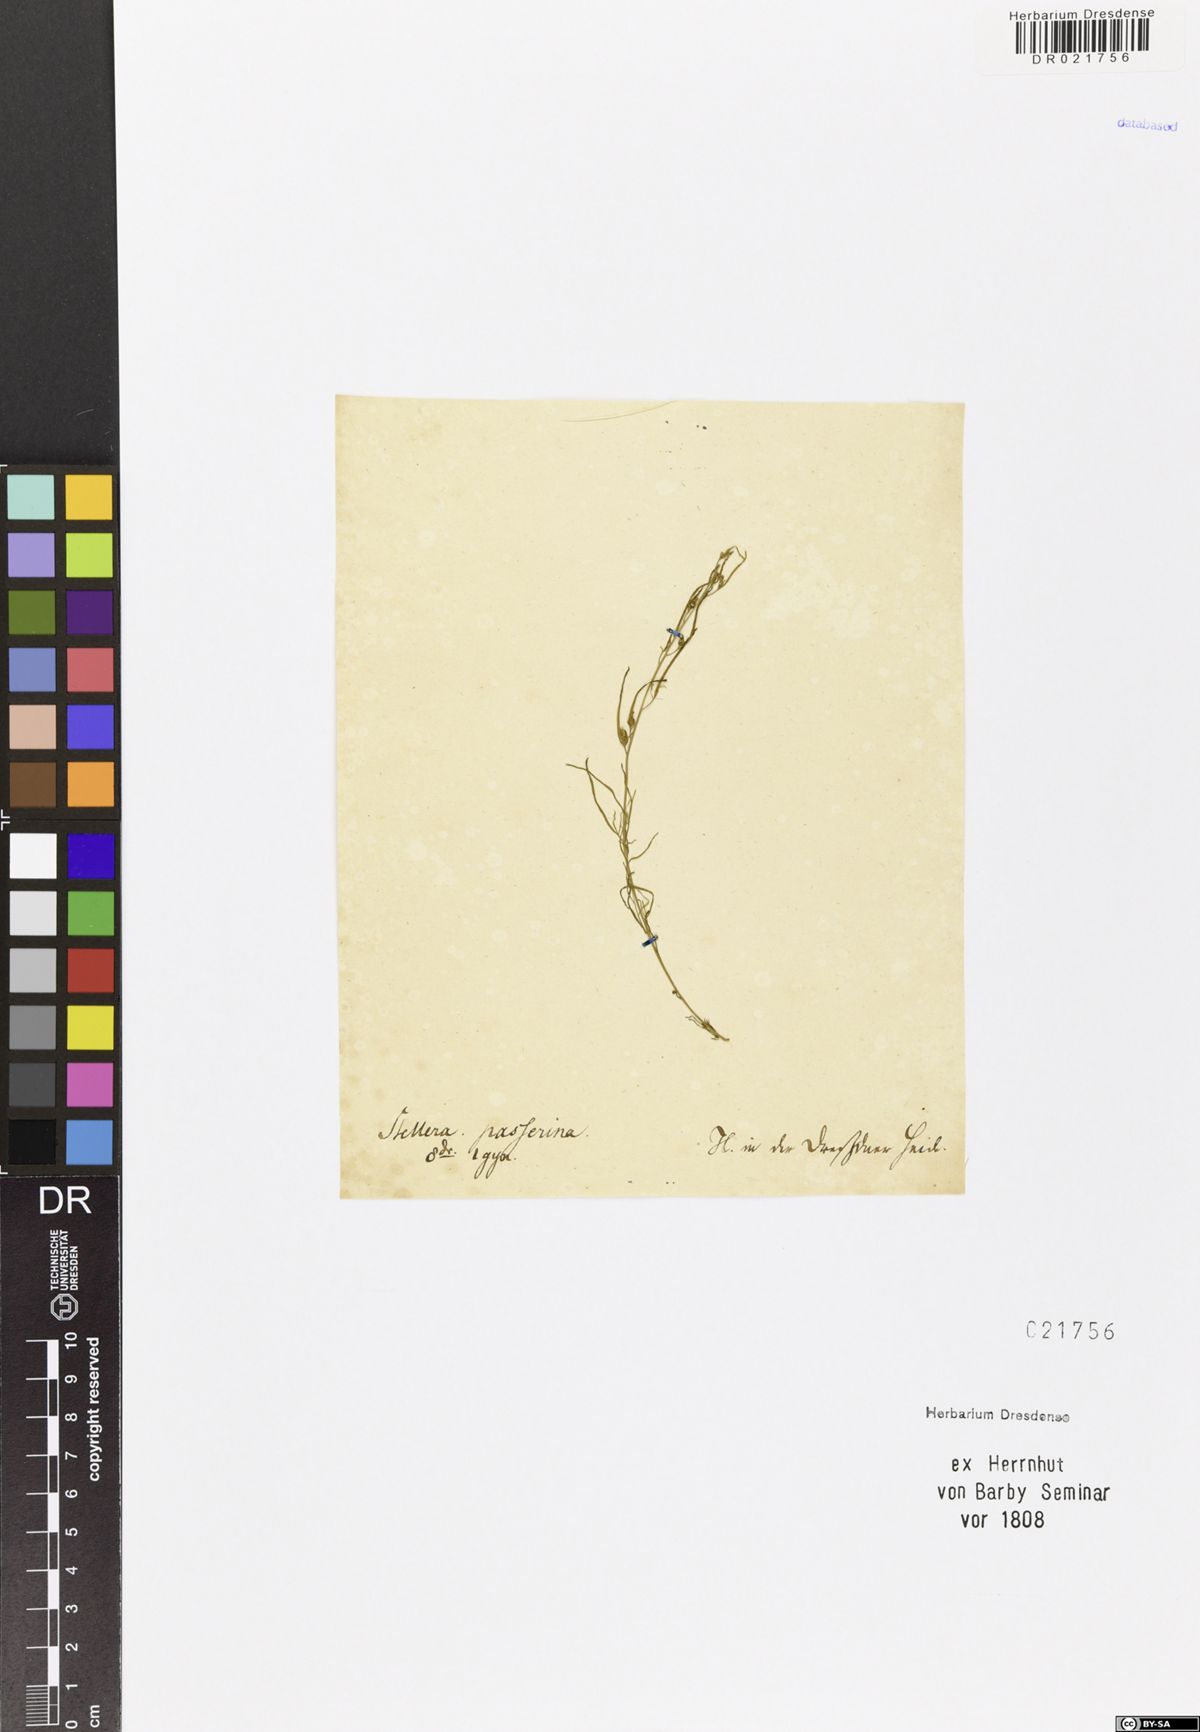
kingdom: Plantae
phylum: Tracheophyta
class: Magnoliopsida
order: Santalales
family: Thesiaceae
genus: Thesium
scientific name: Thesium alpinum
